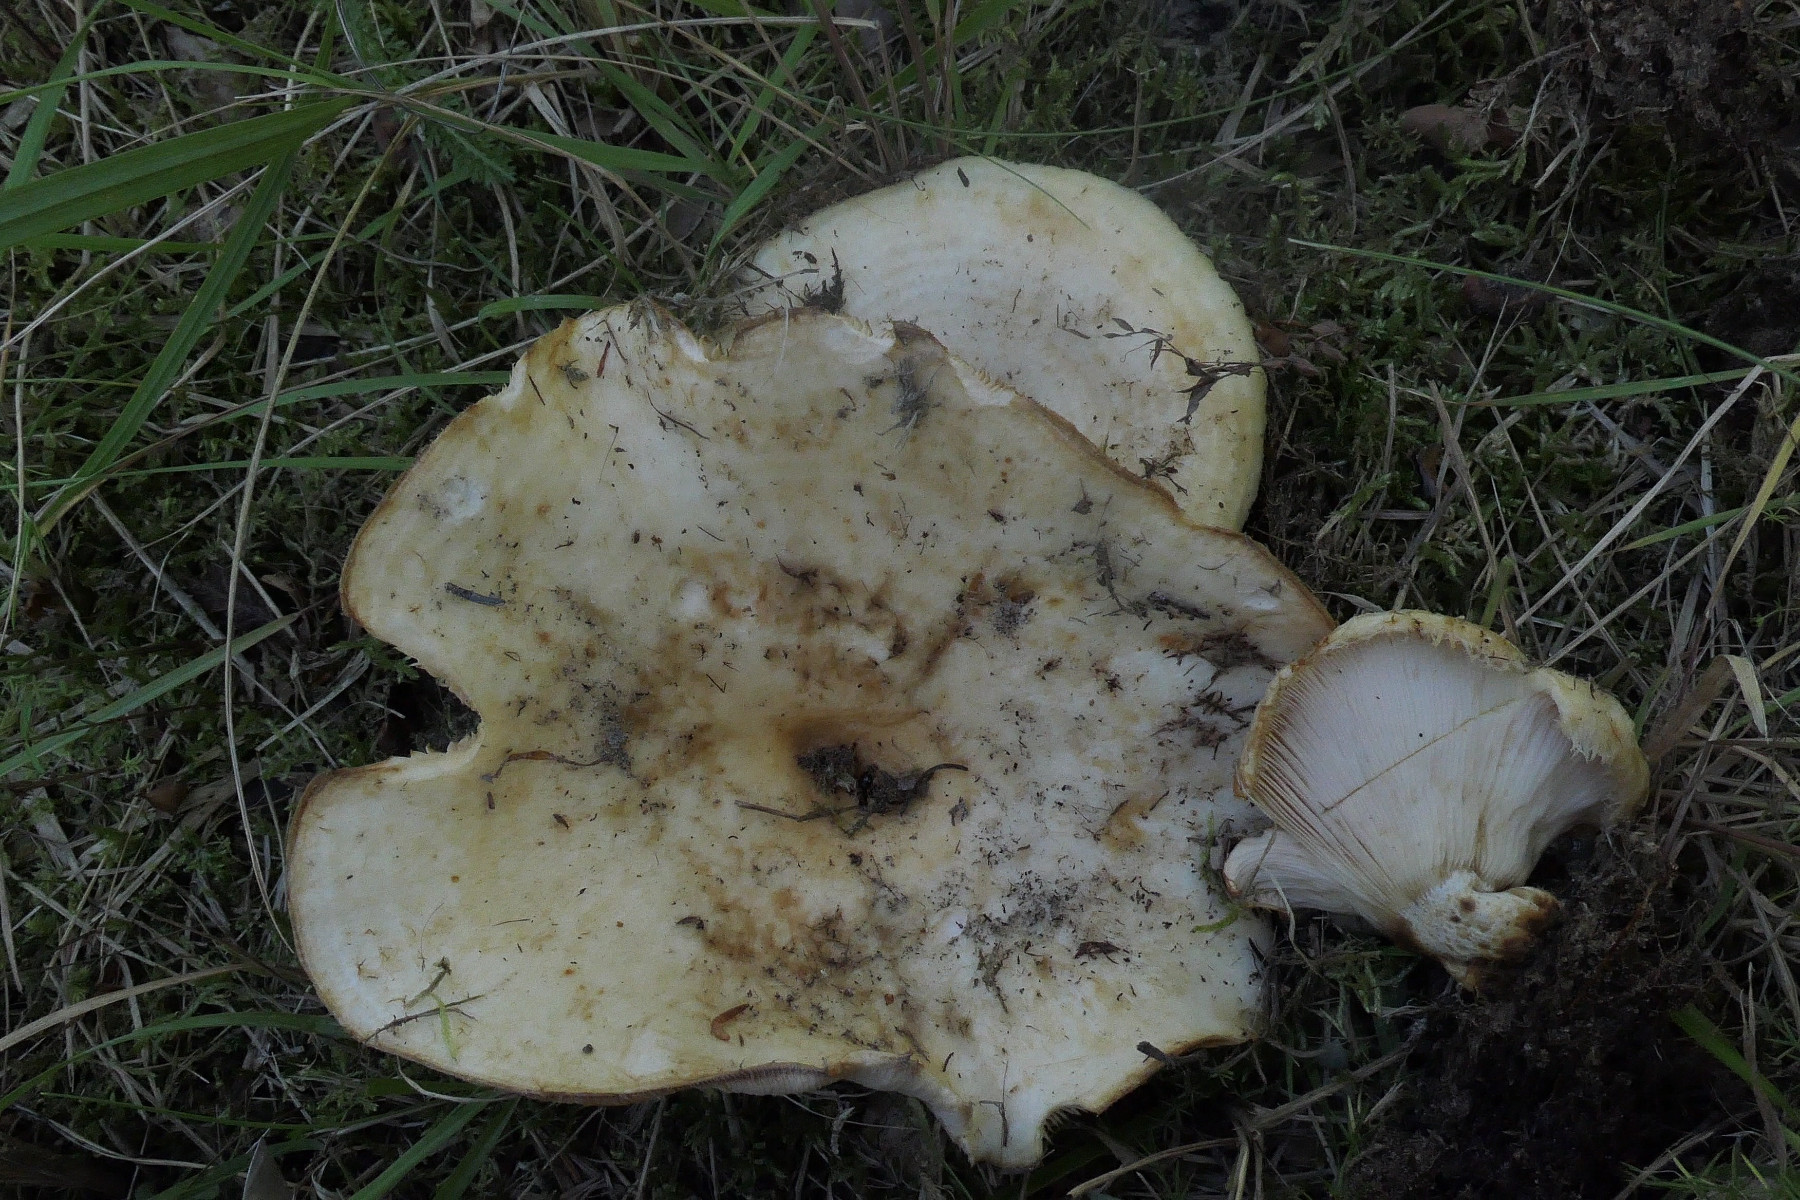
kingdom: Fungi
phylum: Basidiomycota
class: Agaricomycetes
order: Russulales
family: Russulaceae
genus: Lactarius
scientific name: Lactarius aquizonatus
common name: vandbæltet mælkehat
